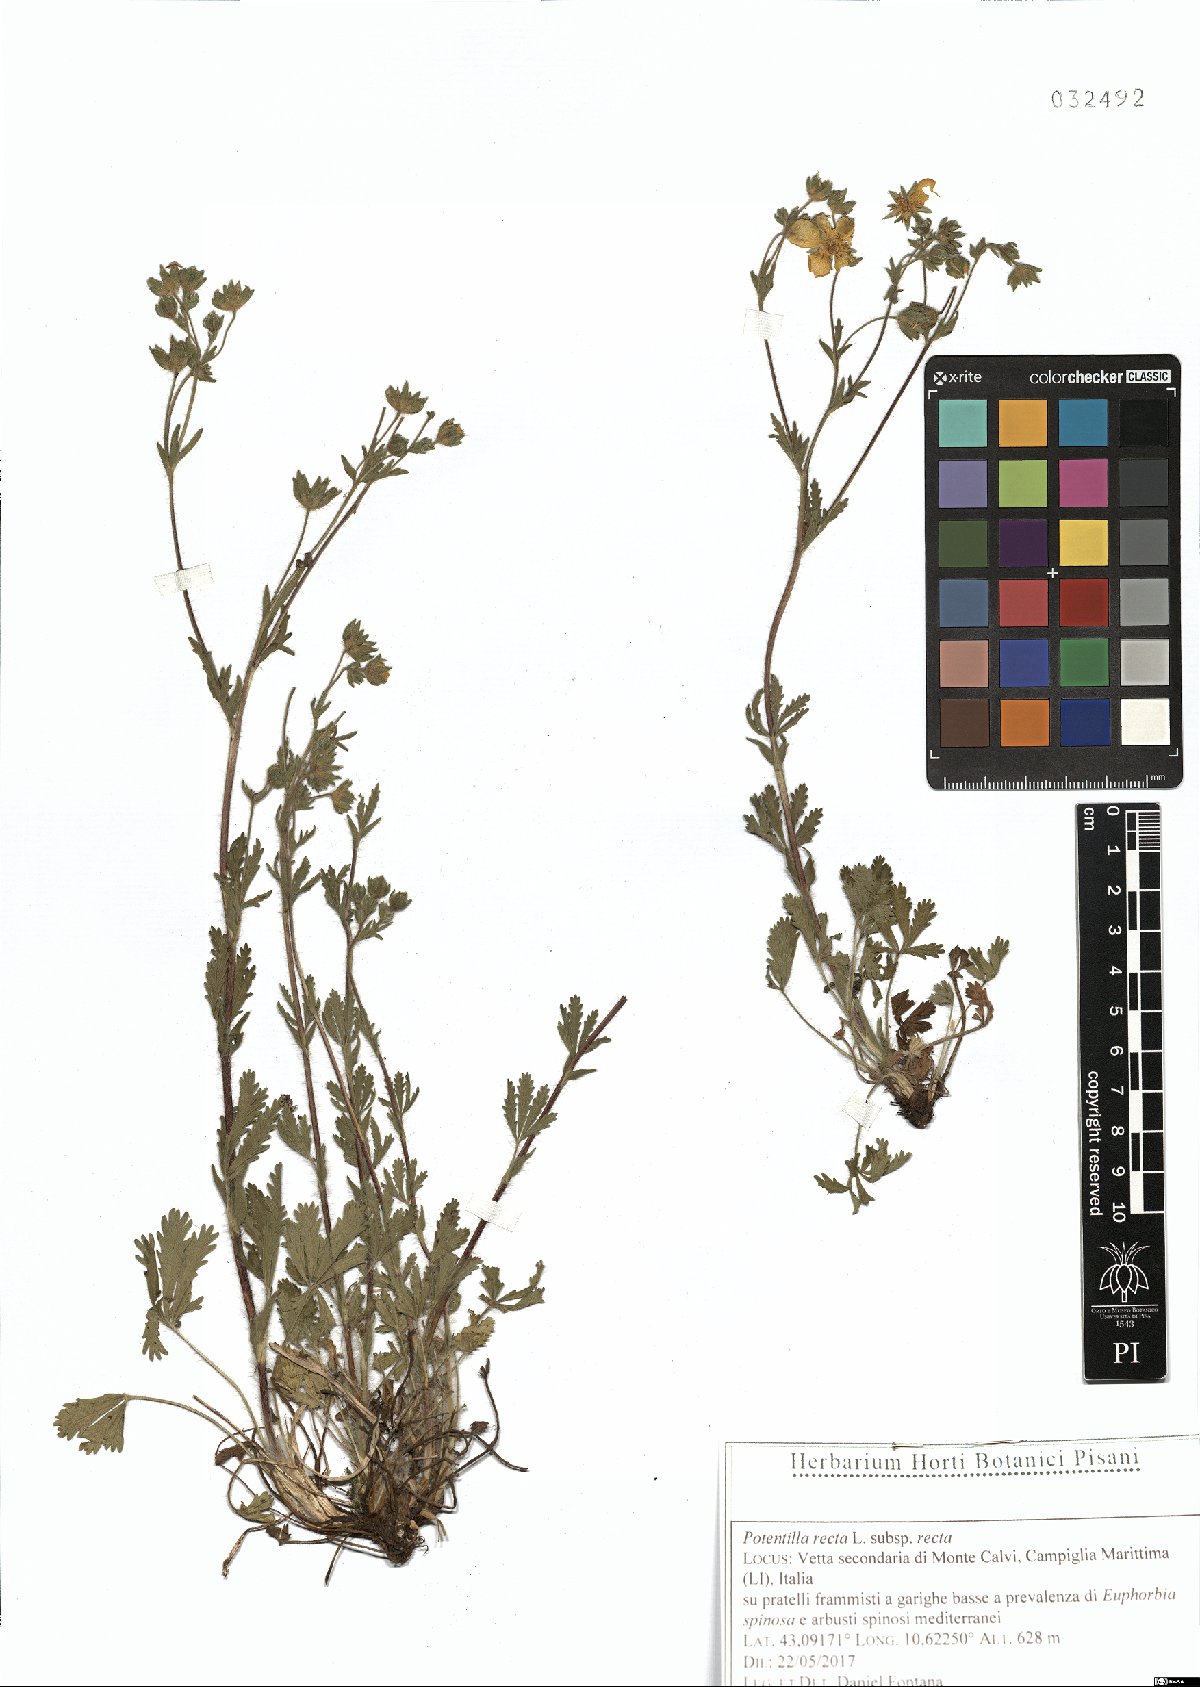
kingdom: Plantae
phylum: Tracheophyta
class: Magnoliopsida
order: Rosales
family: Rosaceae
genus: Potentilla
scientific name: Potentilla recta
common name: Sulphur cinquefoil
